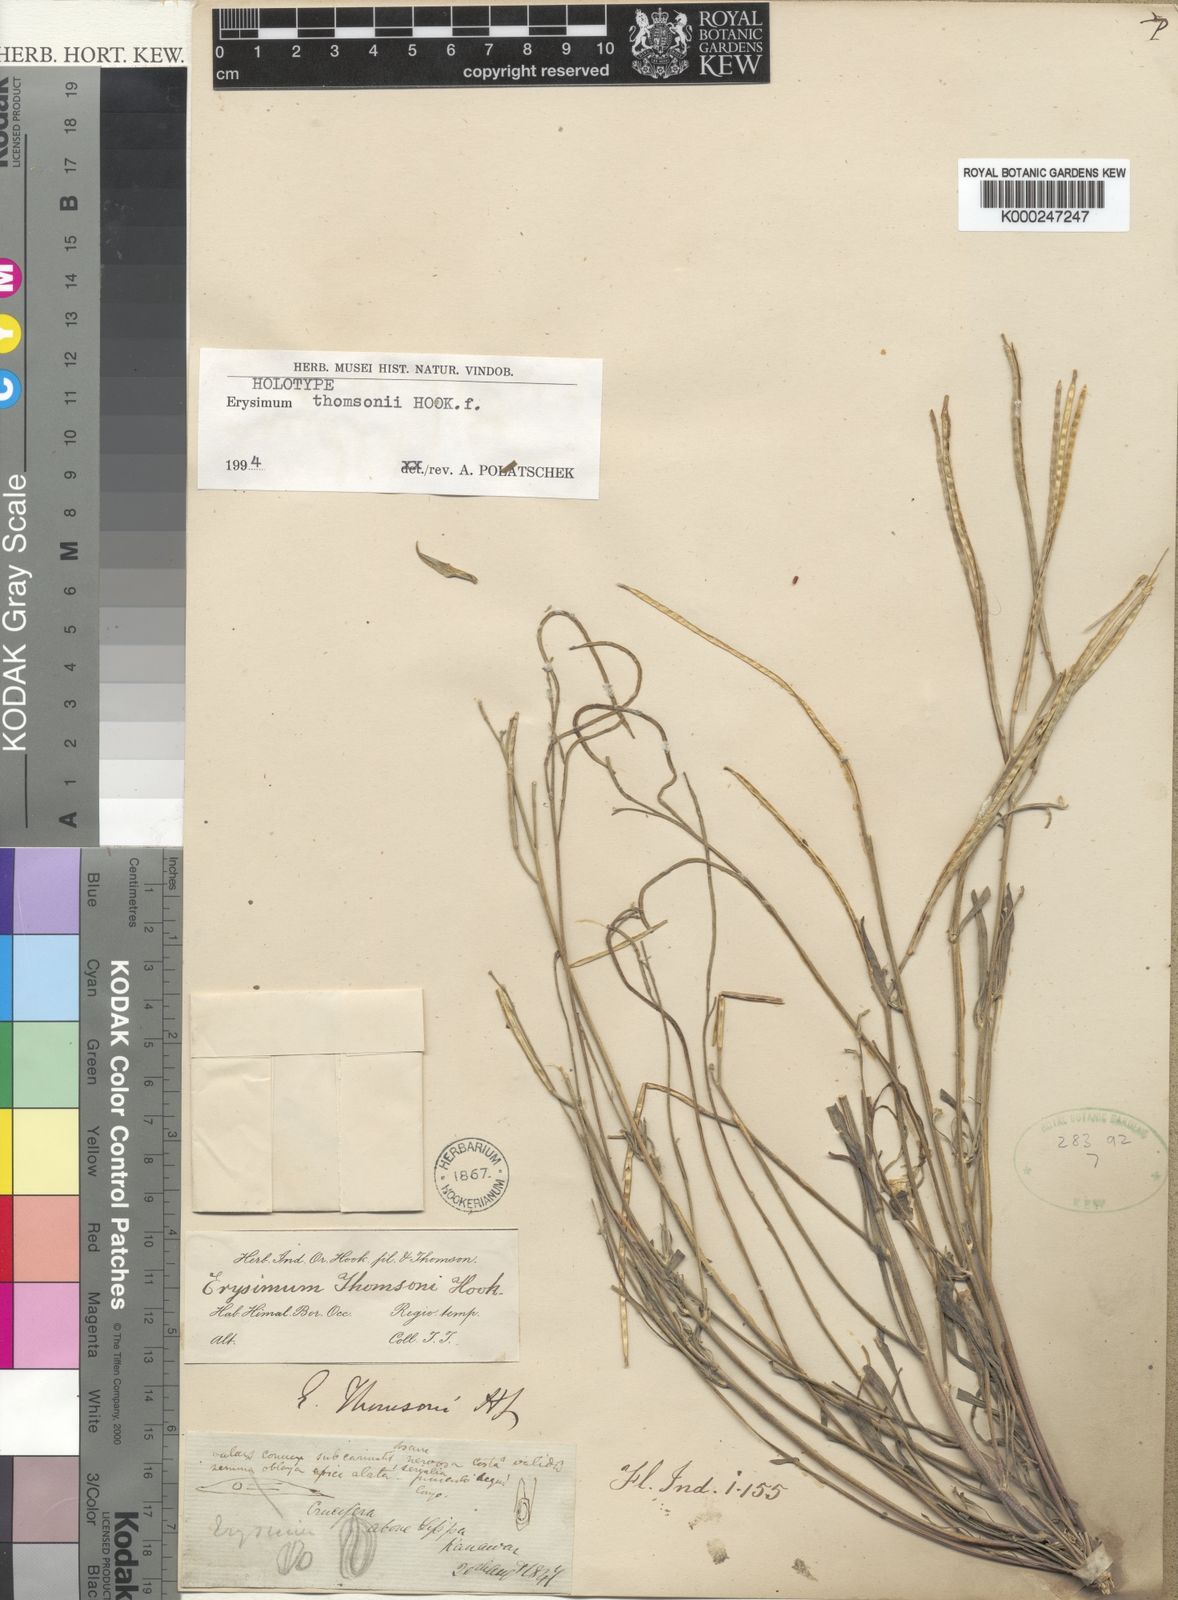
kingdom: Plantae
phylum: Tracheophyta
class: Magnoliopsida
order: Brassicales
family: Brassicaceae
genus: Erysimum
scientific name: Erysimum thomsonii
